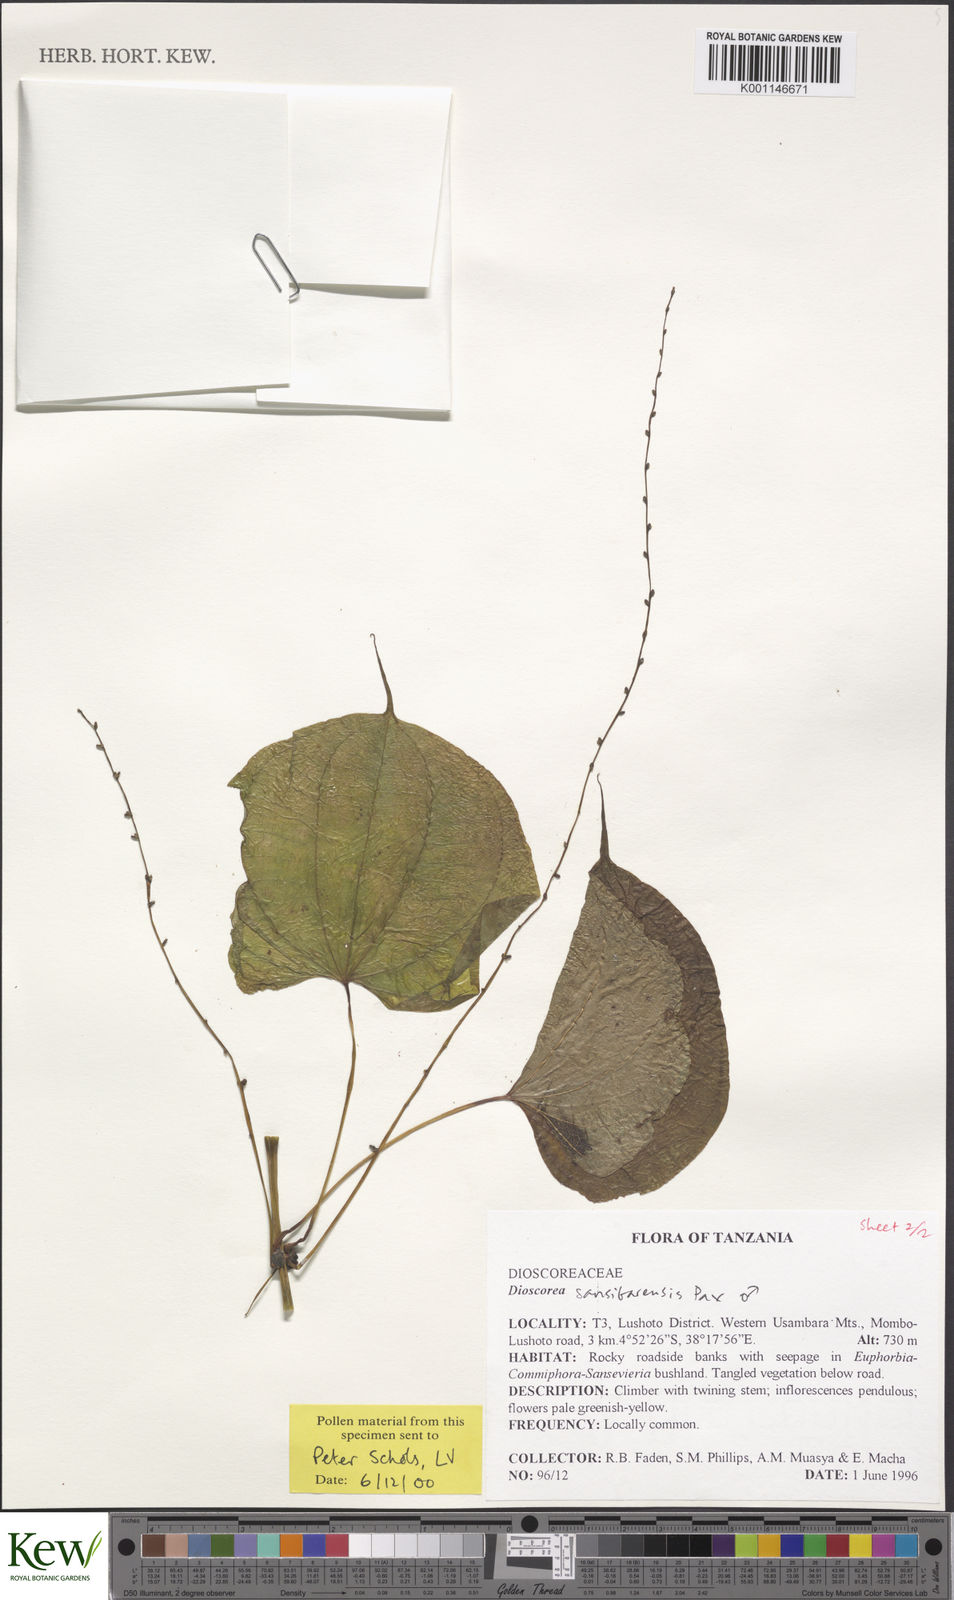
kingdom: Plantae
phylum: Tracheophyta
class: Liliopsida
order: Dioscoreales
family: Dioscoreaceae
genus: Dioscorea
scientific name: Dioscorea sansibarensis
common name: Zanzibar yam
